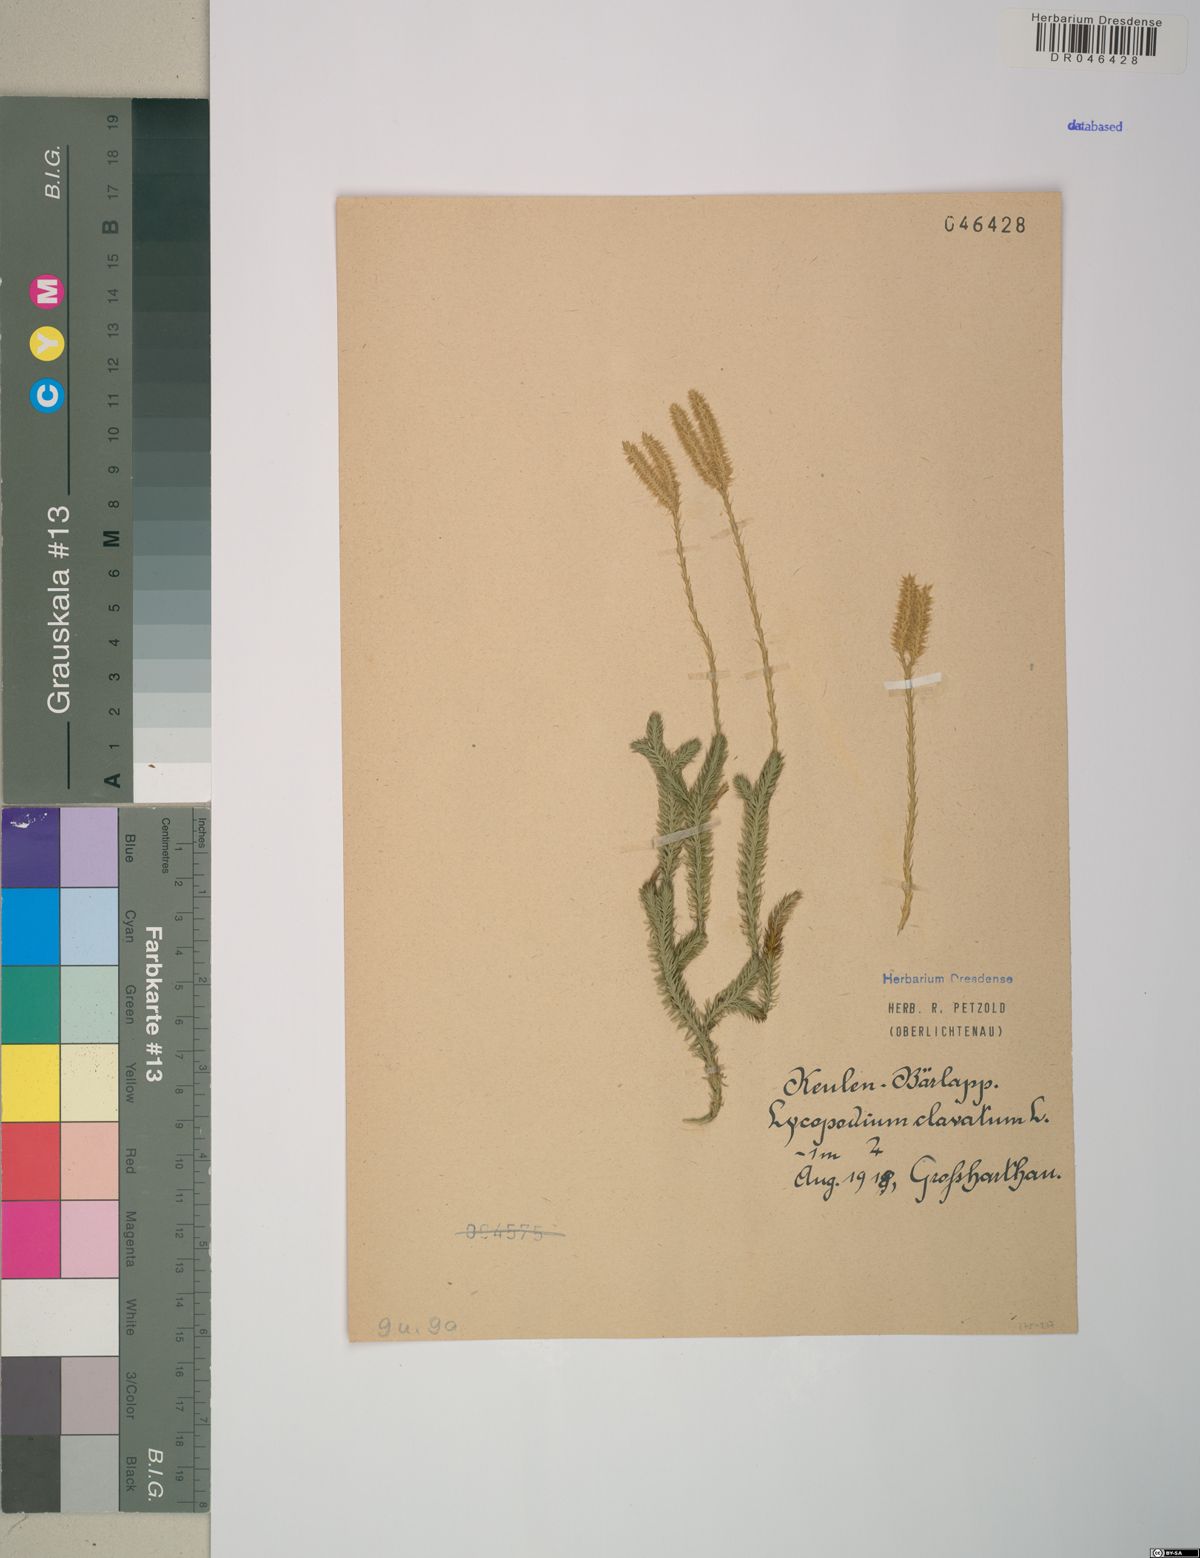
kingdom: Plantae
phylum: Tracheophyta
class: Lycopodiopsida
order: Lycopodiales
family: Lycopodiaceae
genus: Lycopodium
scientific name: Lycopodium clavatum
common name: Stag's-horn clubmoss
